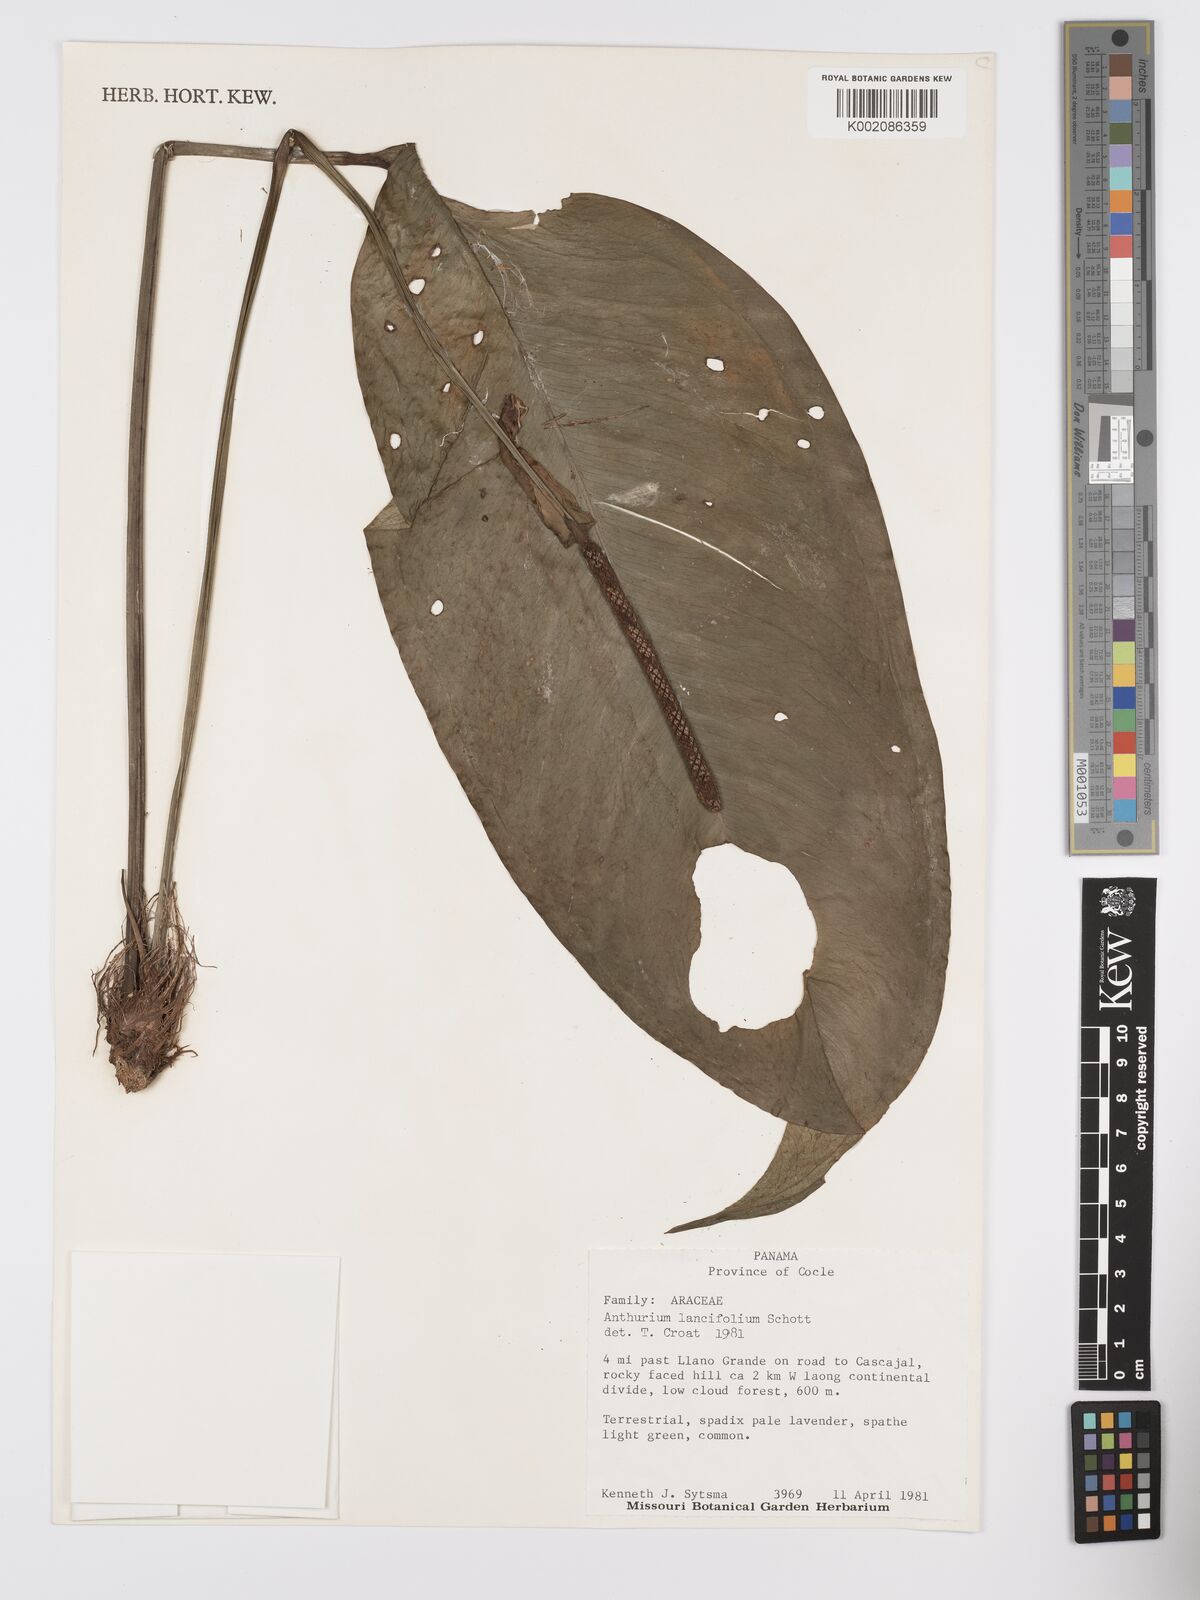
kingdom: Plantae
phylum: Tracheophyta
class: Liliopsida
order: Alismatales
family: Araceae
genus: Anthurium
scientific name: Anthurium lancifolium
